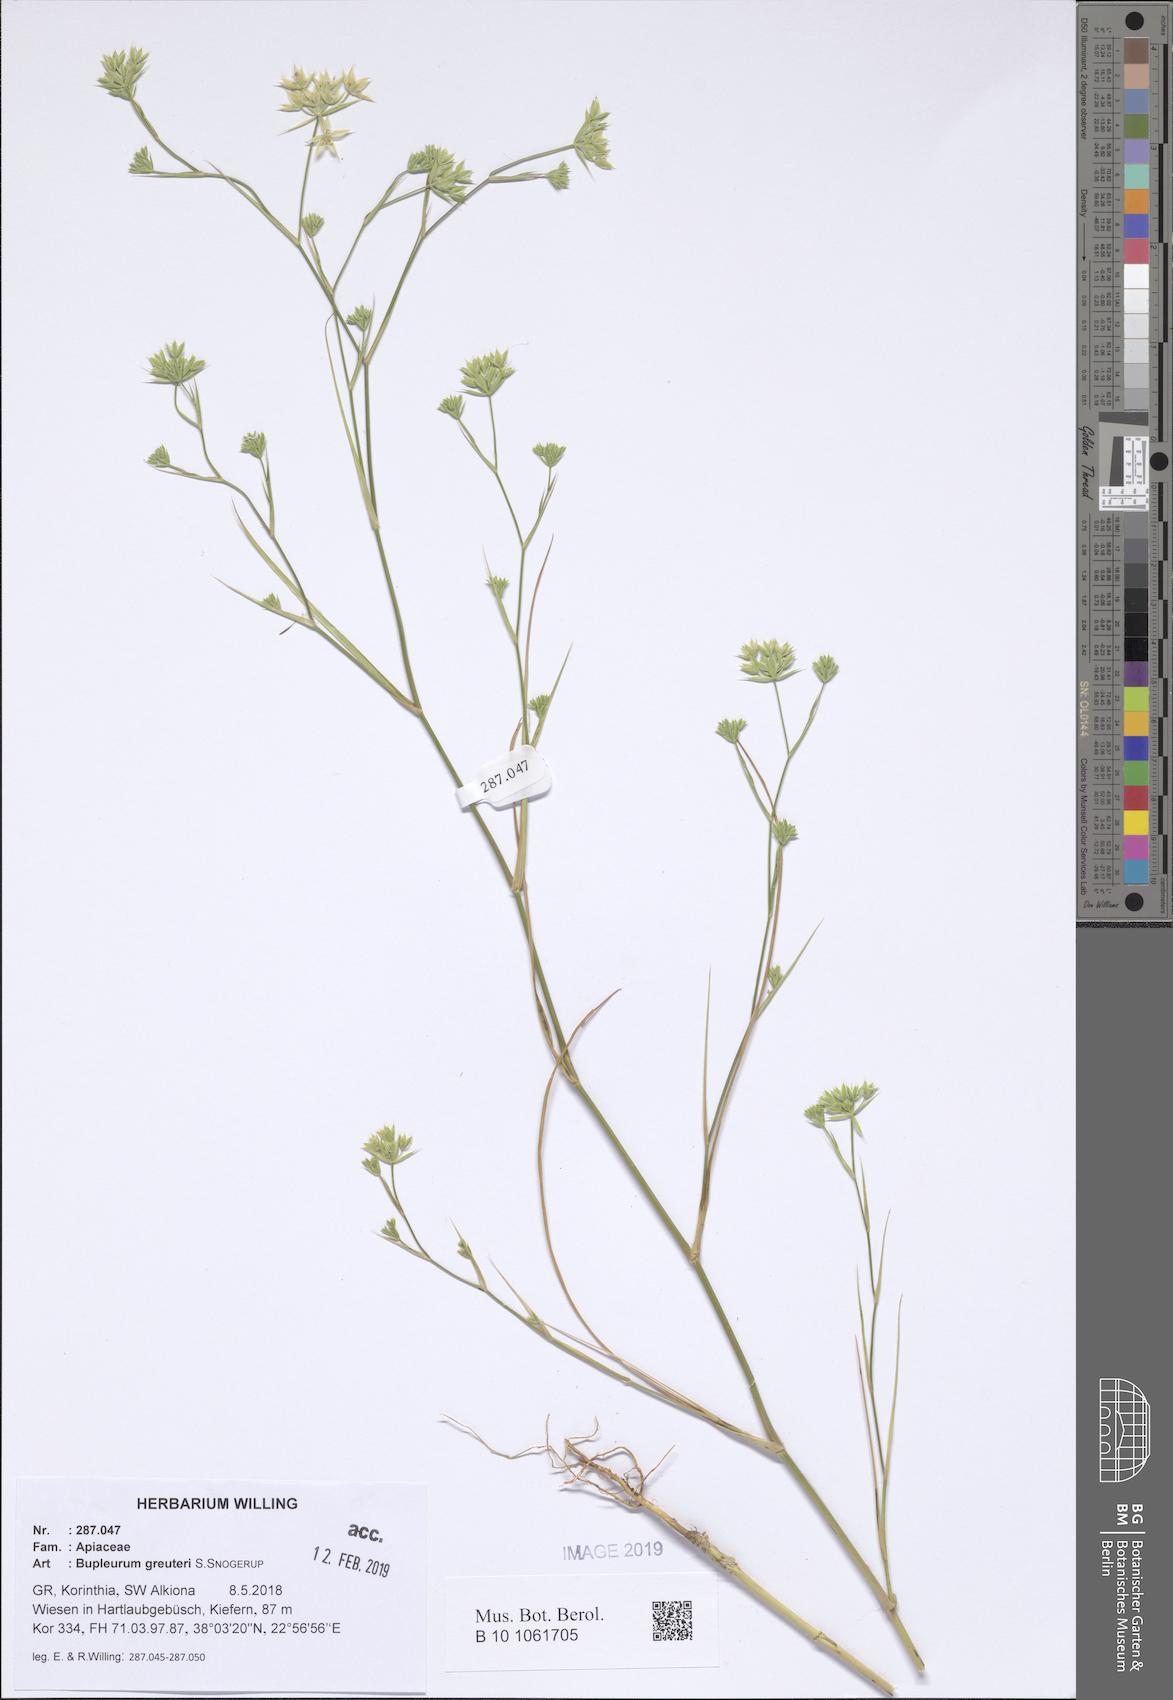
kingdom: Plantae
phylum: Tracheophyta
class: Magnoliopsida
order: Apiales
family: Apiaceae
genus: Bupleurum
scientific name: Bupleurum greuteri
